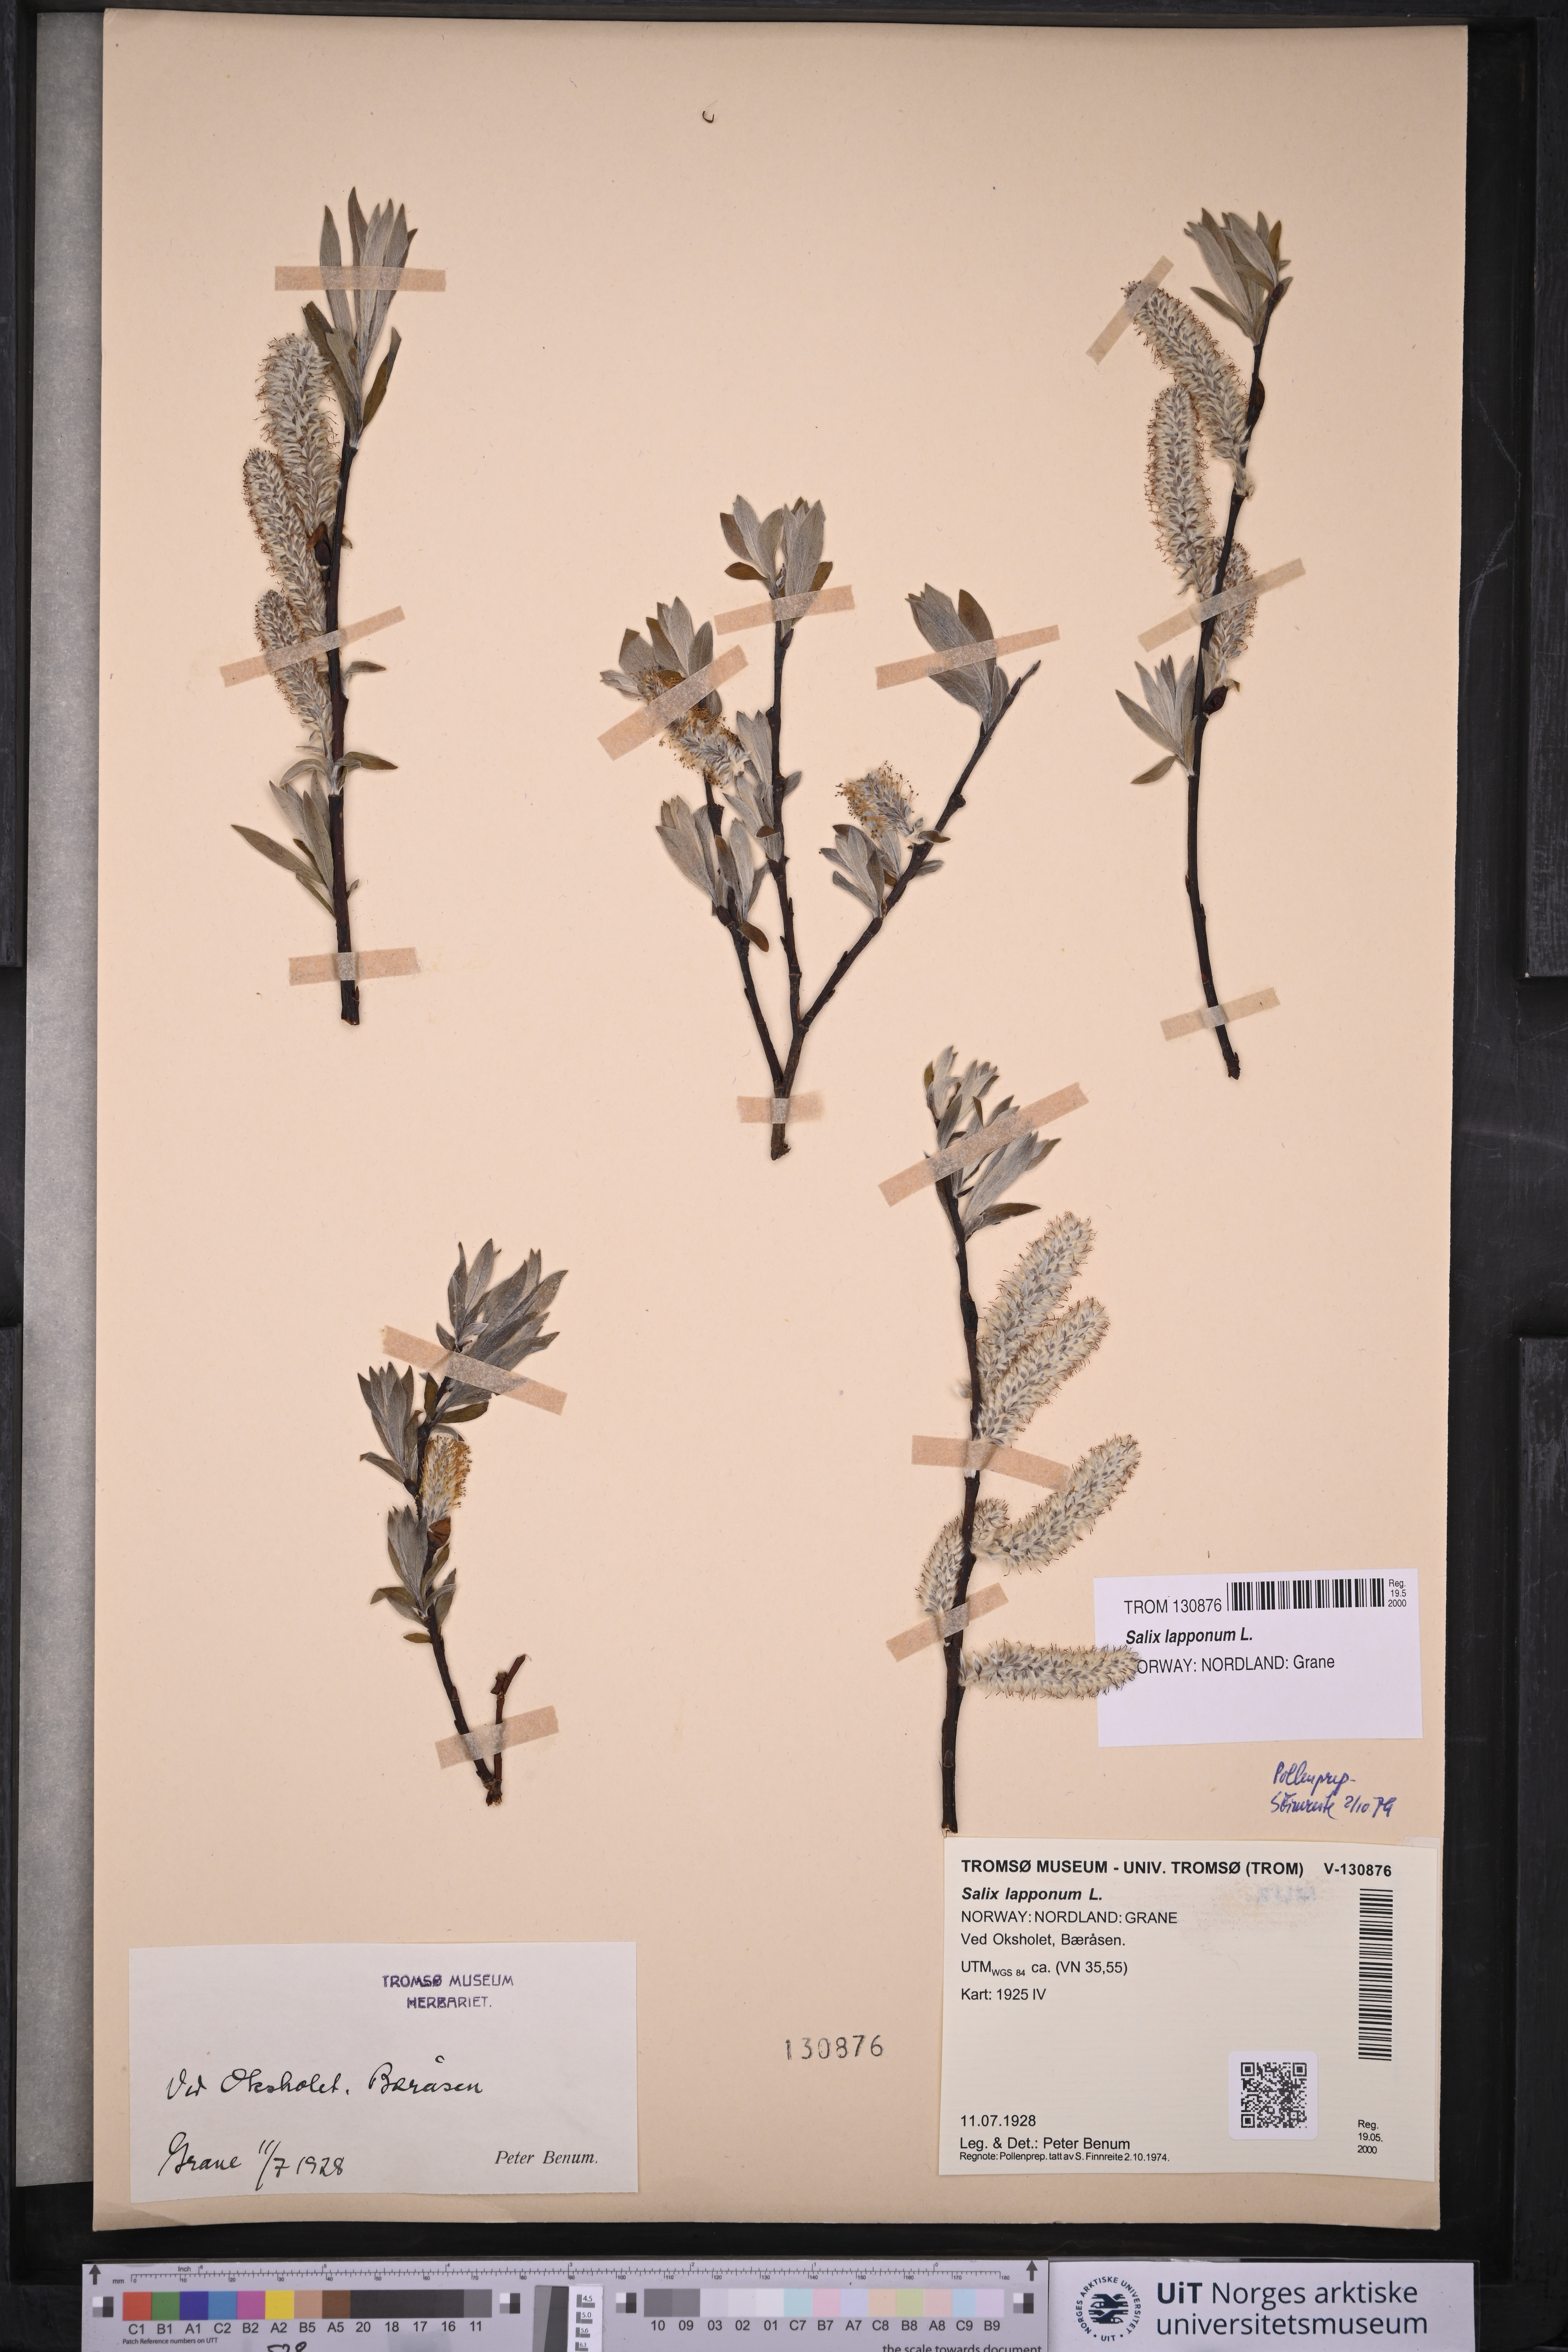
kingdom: Plantae
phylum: Tracheophyta
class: Magnoliopsida
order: Malpighiales
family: Salicaceae
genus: Salix
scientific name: Salix lapponum
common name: Downy willow
